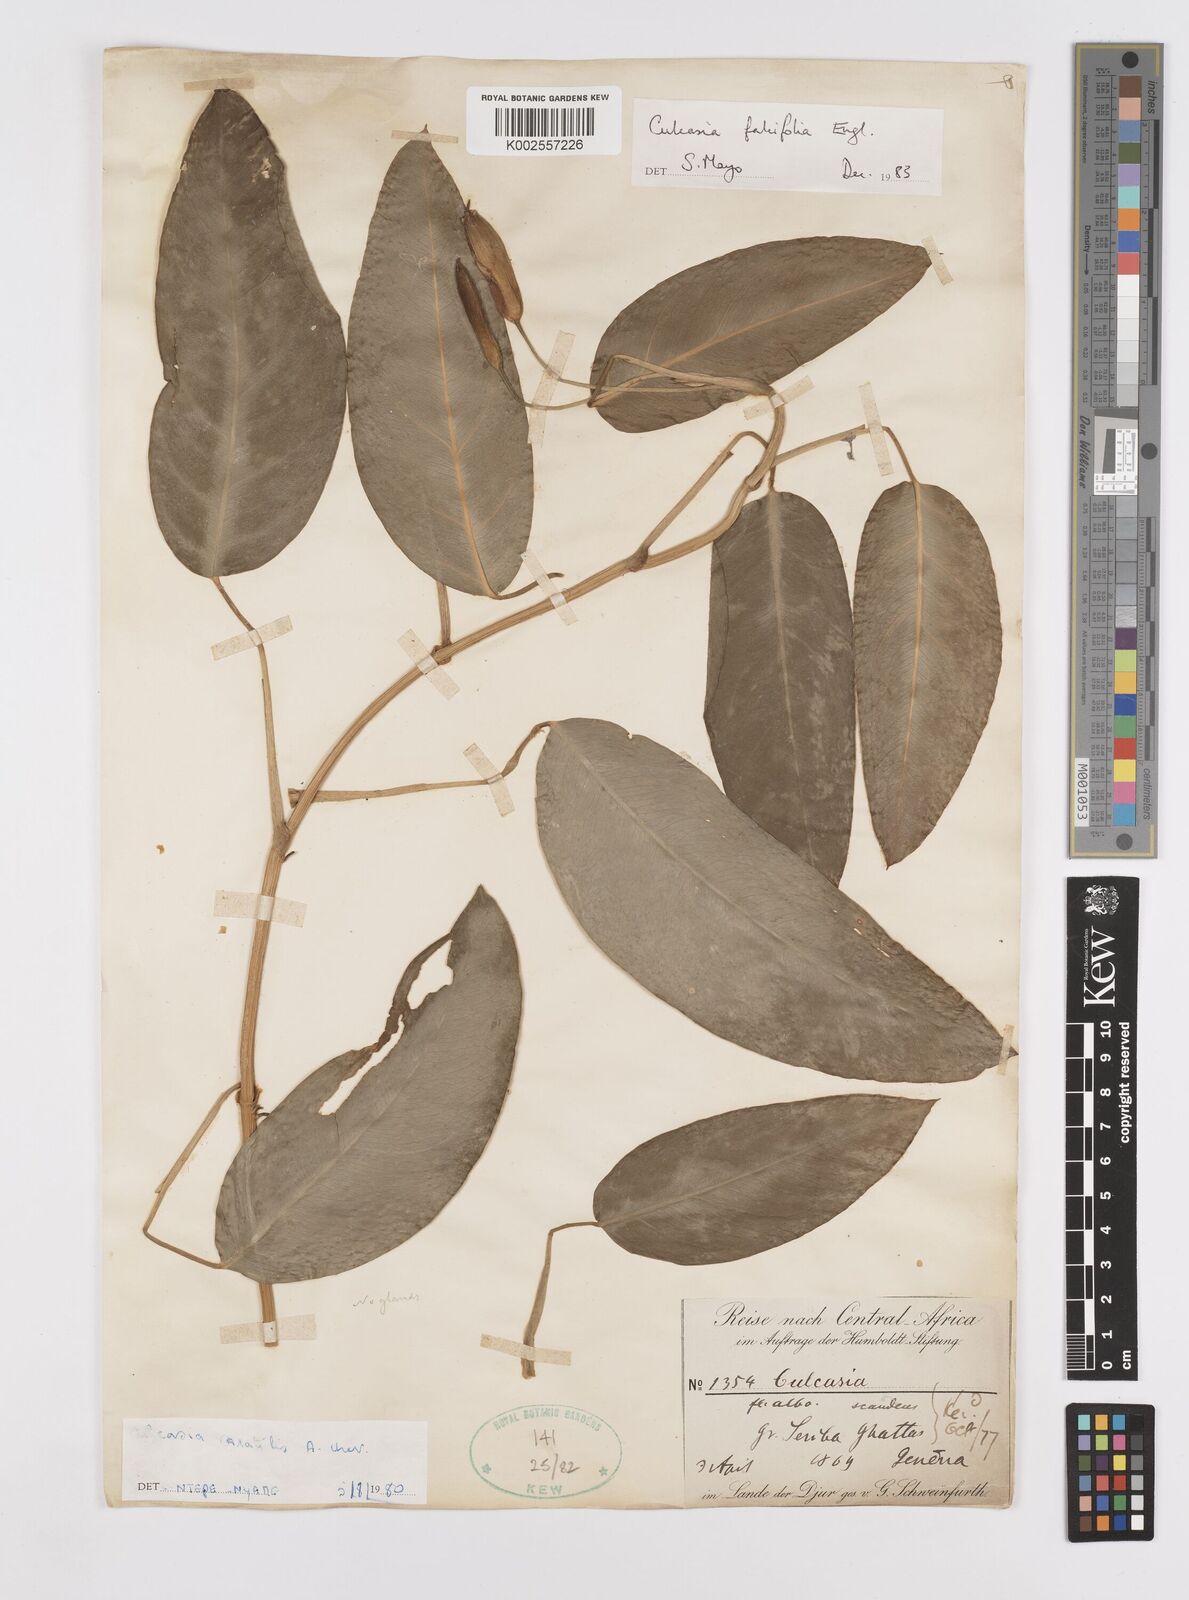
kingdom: Plantae
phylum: Tracheophyta
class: Liliopsida
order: Alismatales
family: Araceae
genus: Culcasia
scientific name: Culcasia falcifolia
